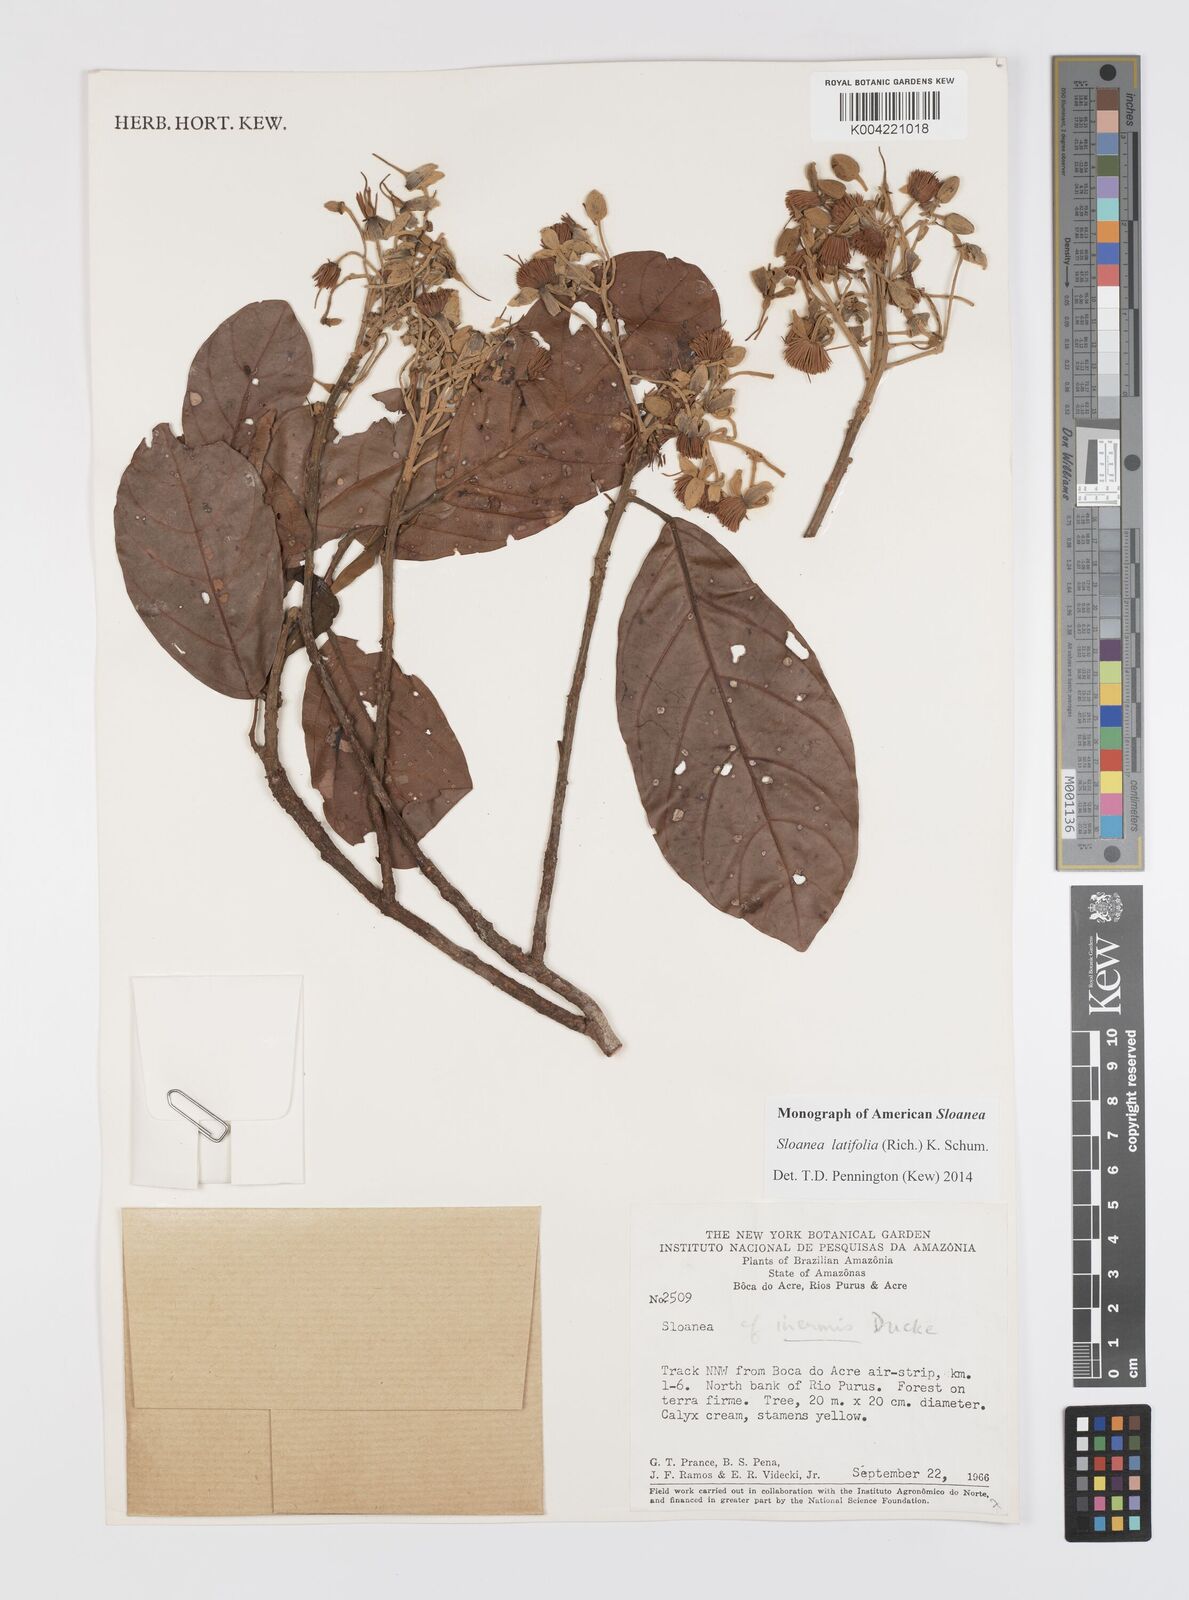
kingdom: Plantae
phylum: Tracheophyta
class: Magnoliopsida
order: Oxalidales
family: Elaeocarpaceae
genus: Sloanea
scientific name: Sloanea latifolia
